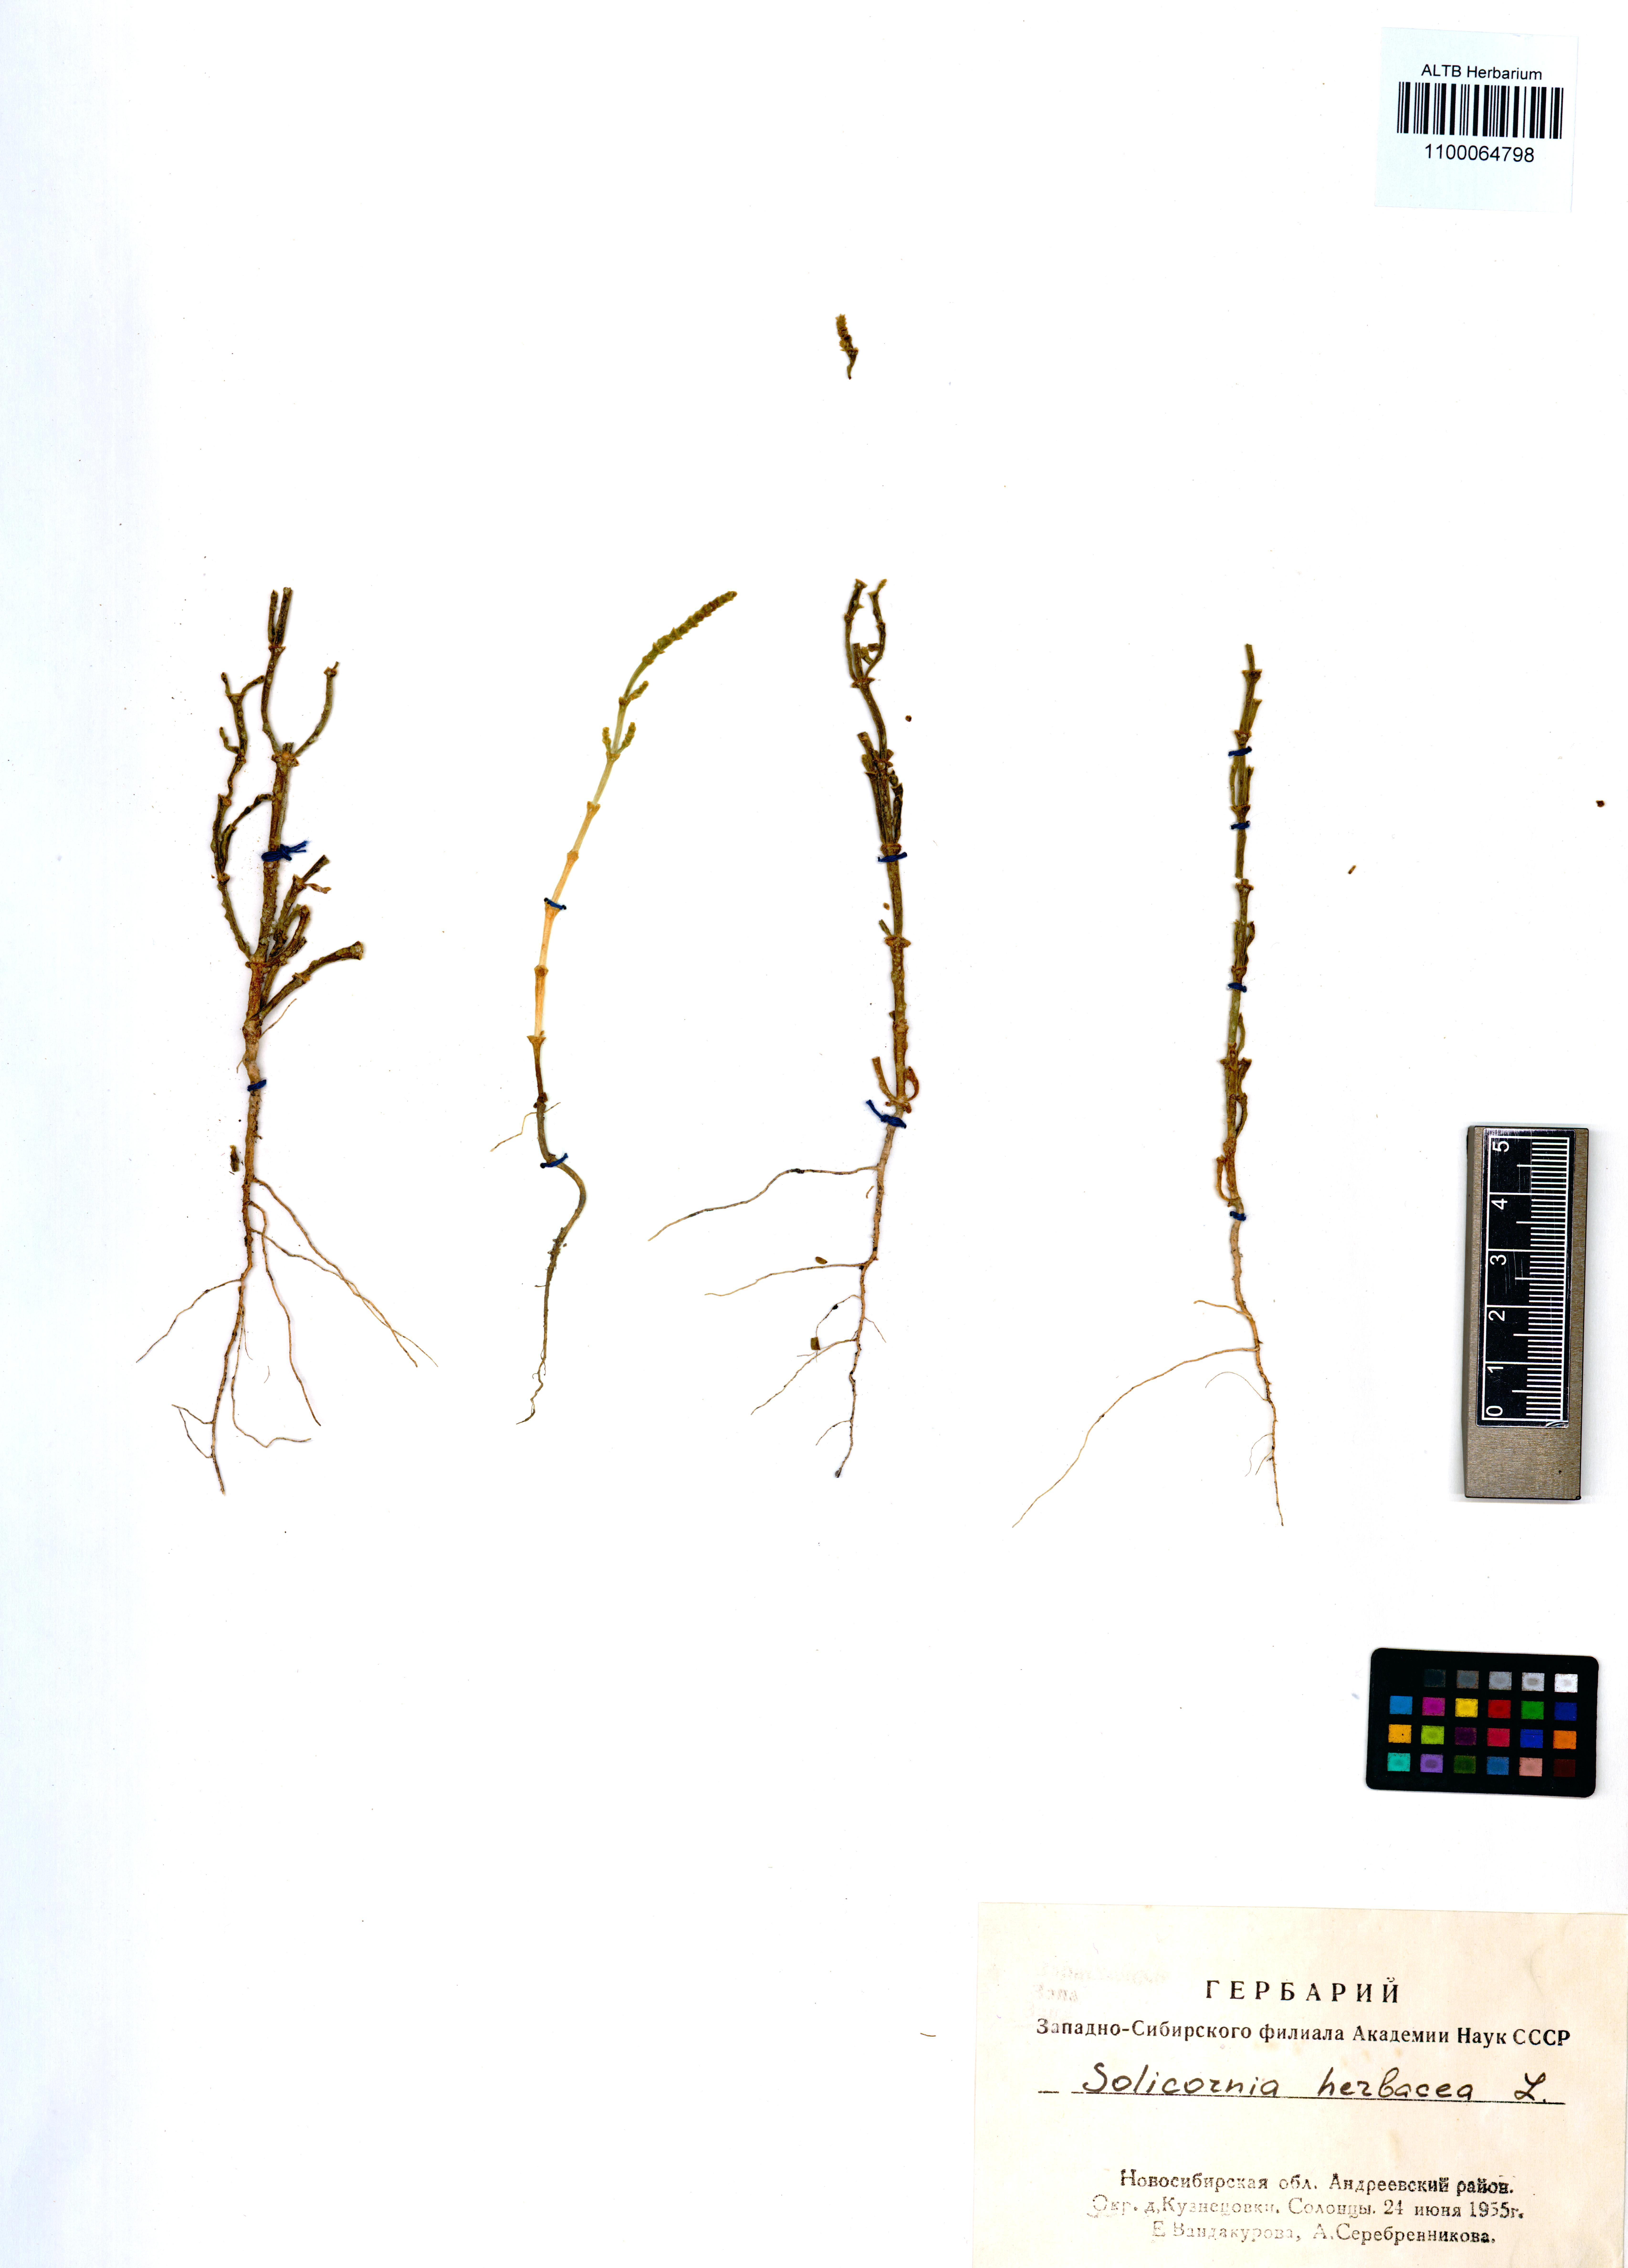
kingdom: Plantae
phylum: Tracheophyta
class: Magnoliopsida
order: Caryophyllales
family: Amaranthaceae
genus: Salicornia
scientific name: Salicornia europaea
